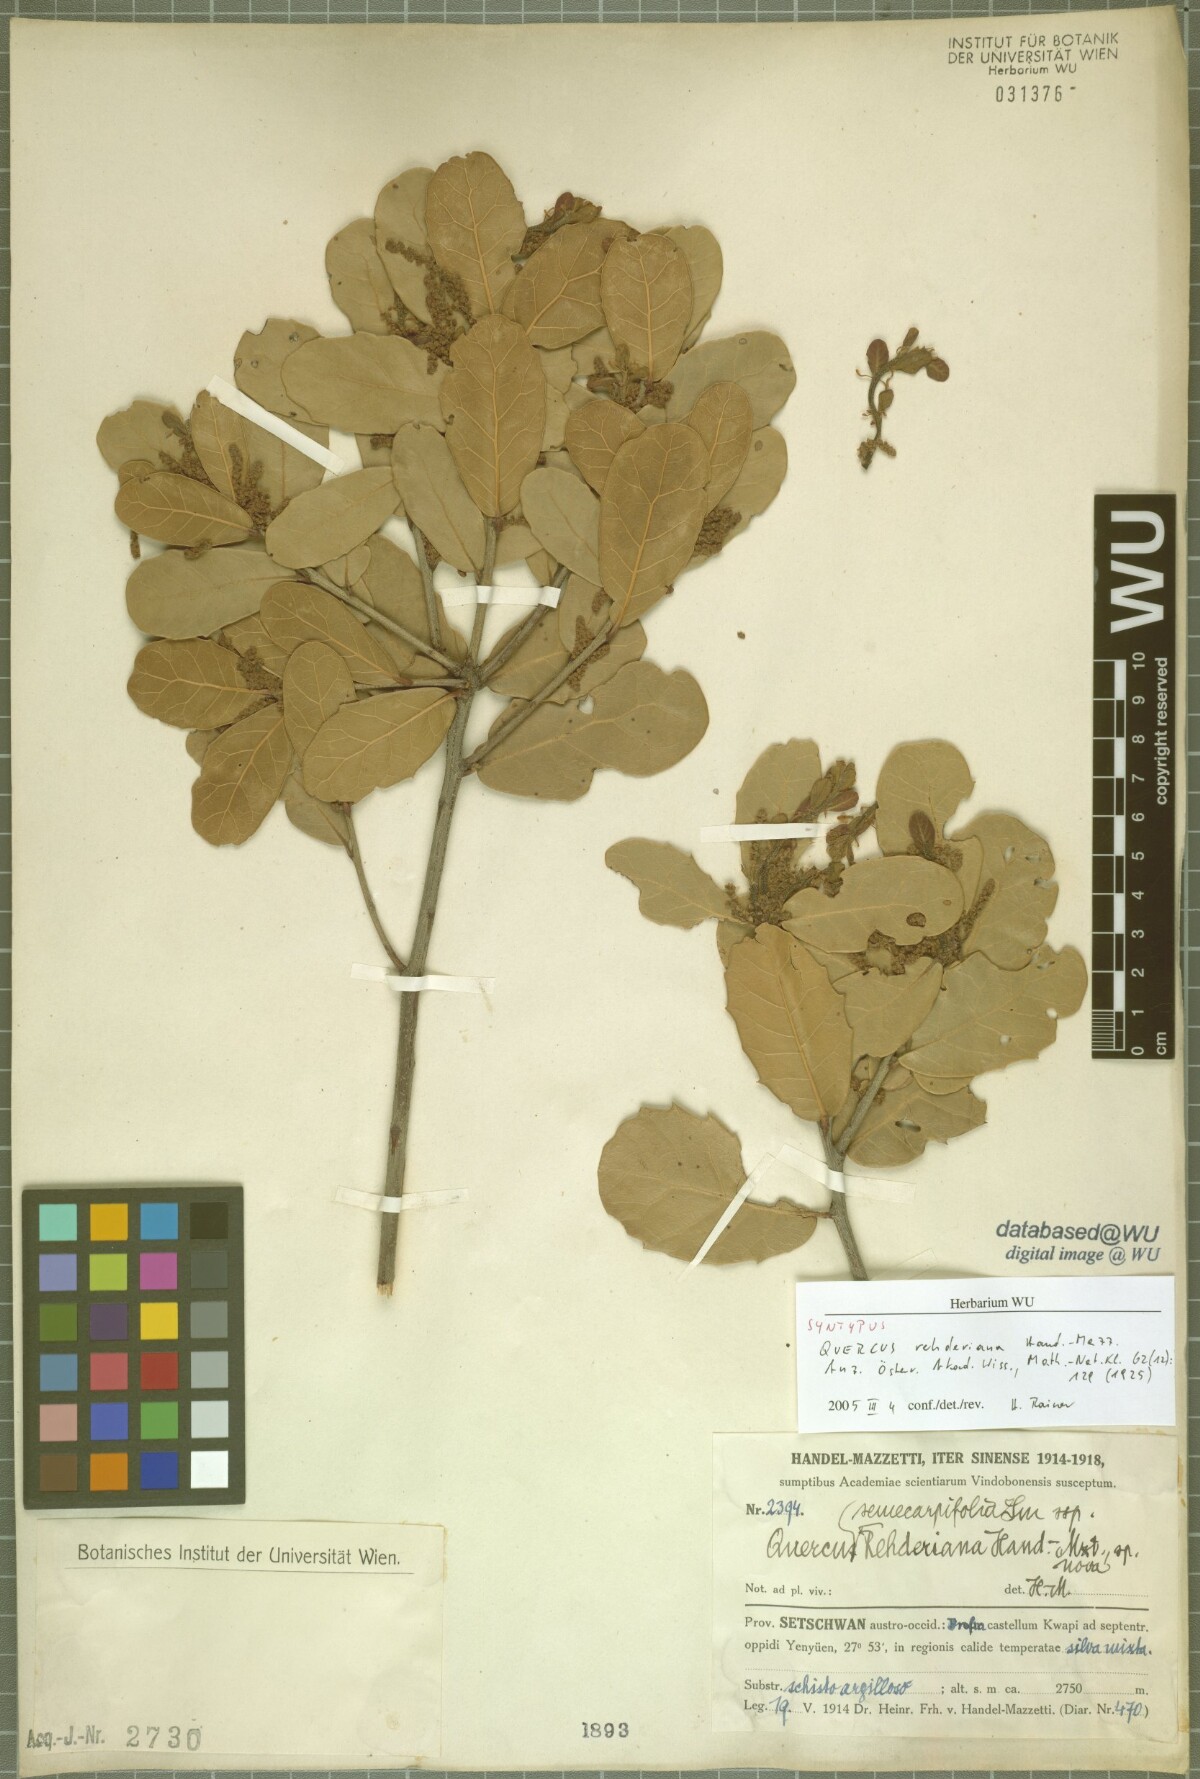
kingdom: Plantae
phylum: Tracheophyta
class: Magnoliopsida
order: Fagales
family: Fagaceae
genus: Quercus
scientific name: Quercus rehderiana
